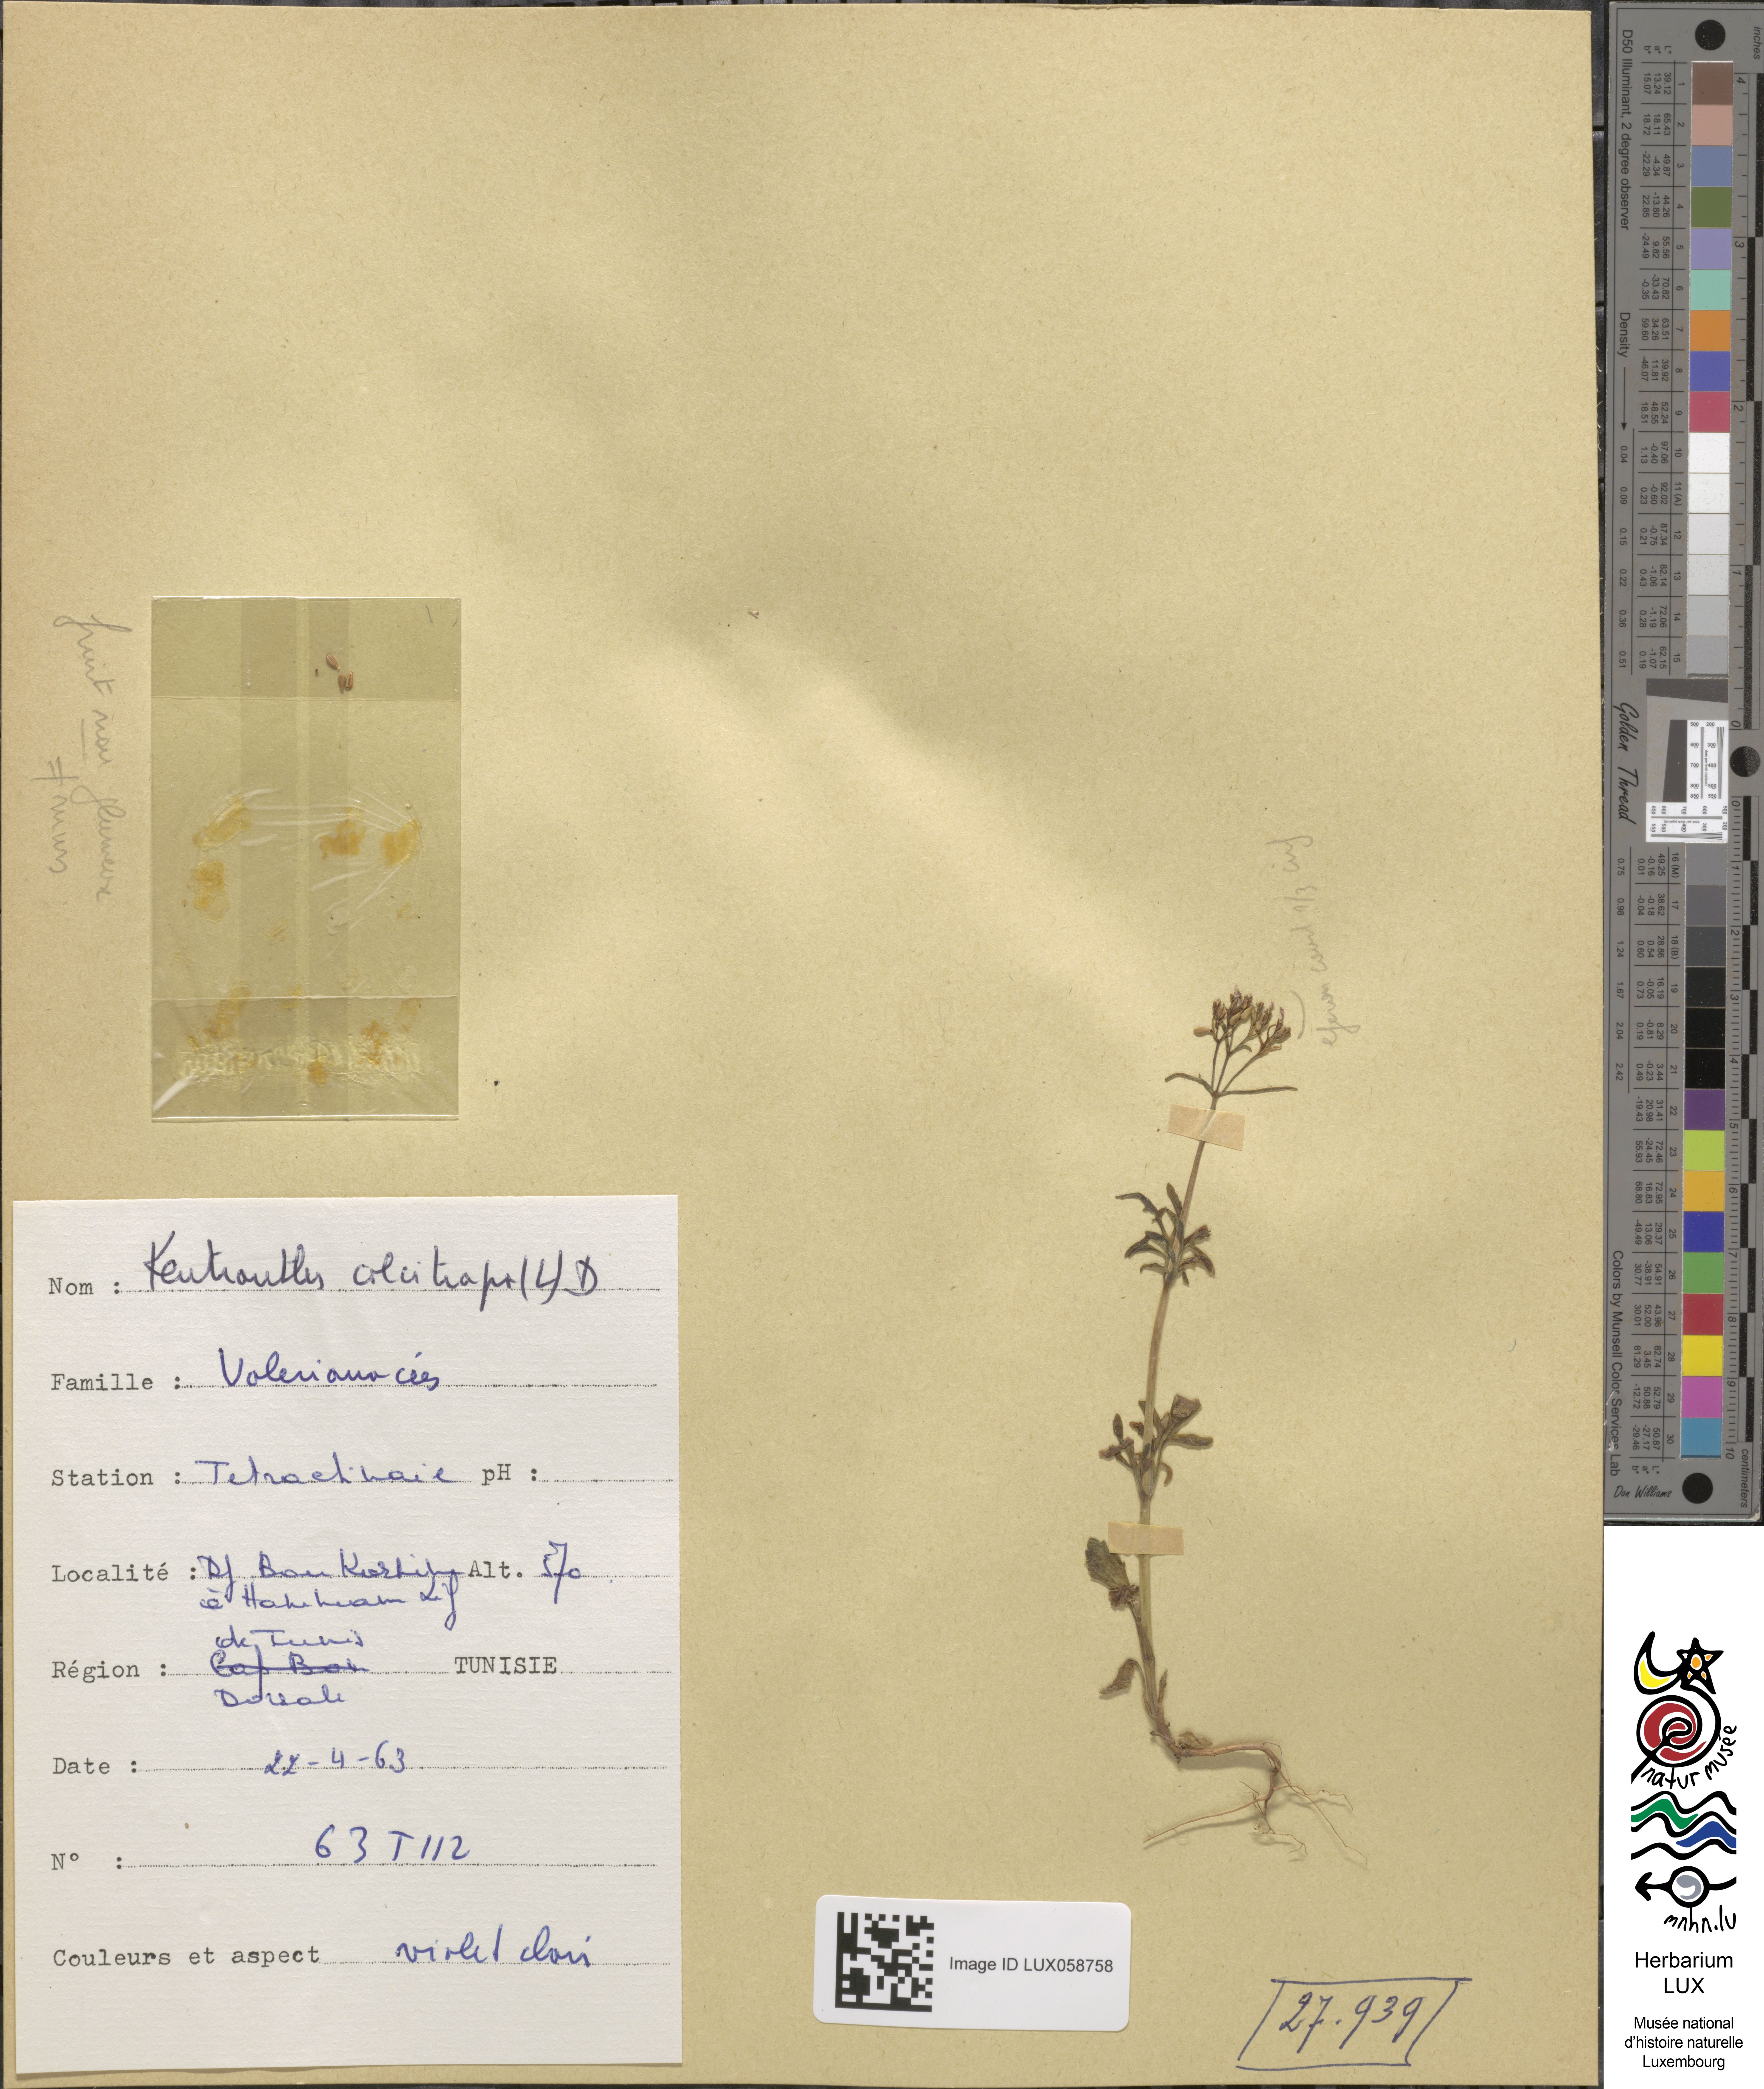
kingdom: Plantae
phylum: Tracheophyta
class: Magnoliopsida
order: Dipsacales
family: Caprifoliaceae
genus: Centranthus
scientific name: Centranthus calcitrapae
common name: Annual valerian
